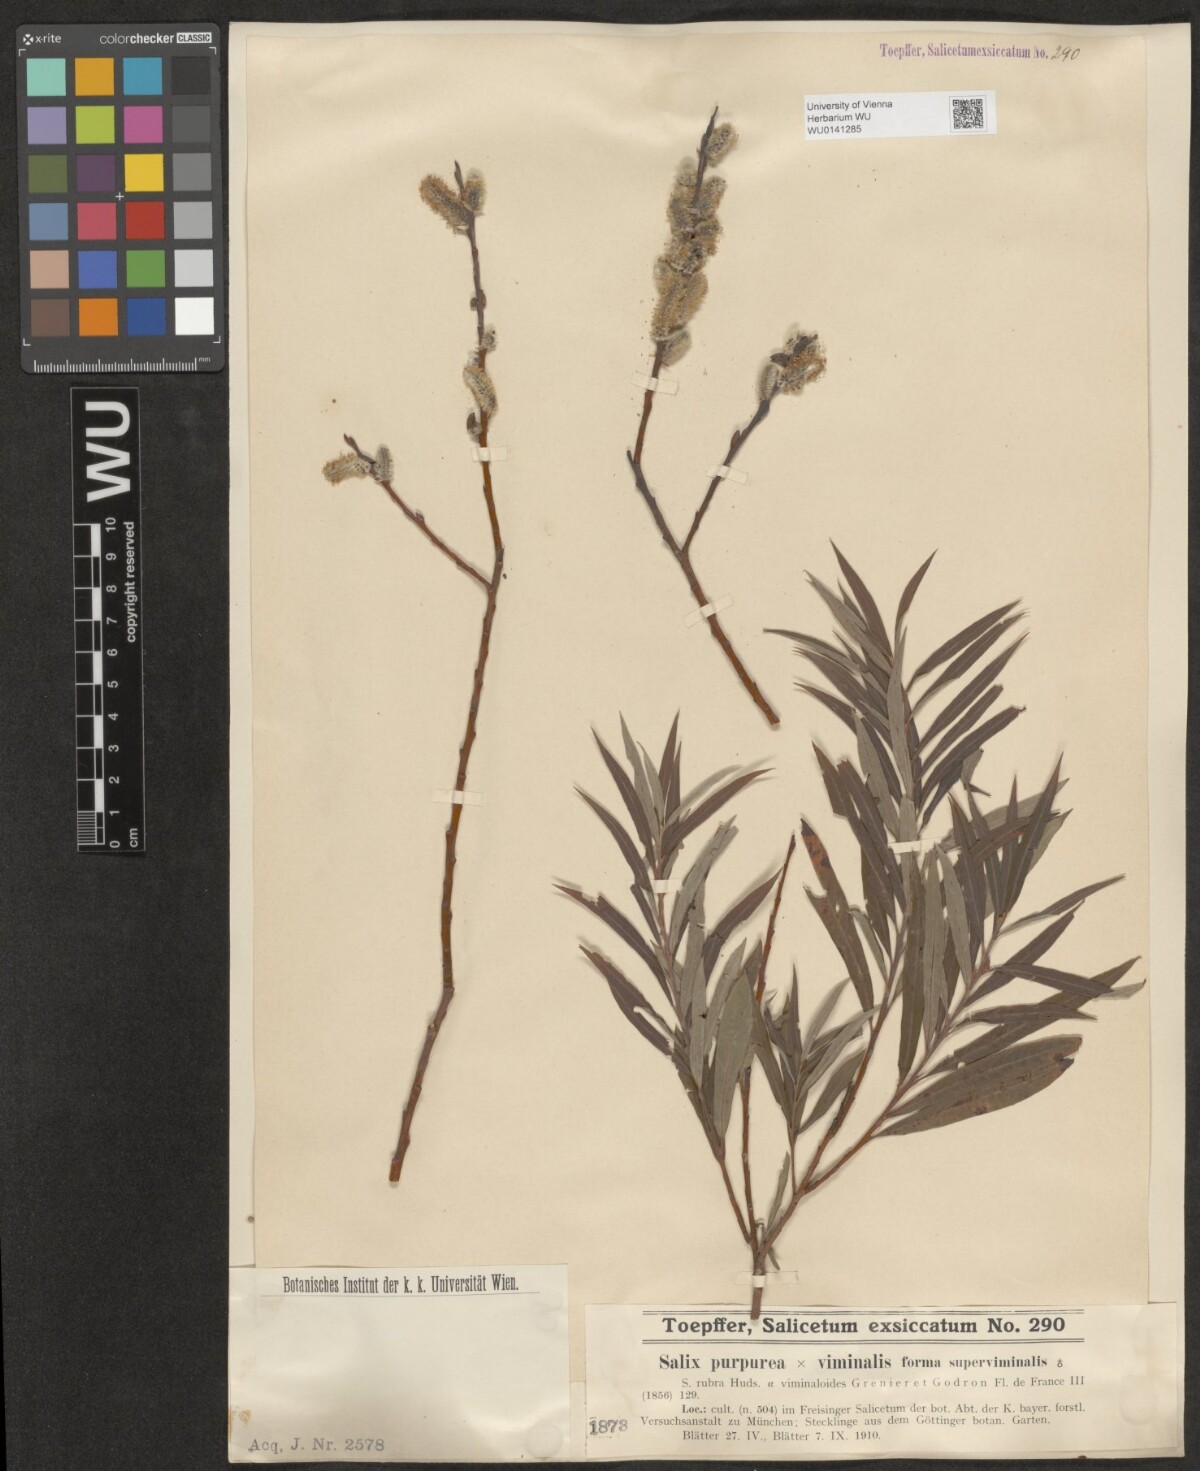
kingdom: Plantae
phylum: Tracheophyta
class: Magnoliopsida
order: Malpighiales
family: Salicaceae
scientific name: Salicaceae
